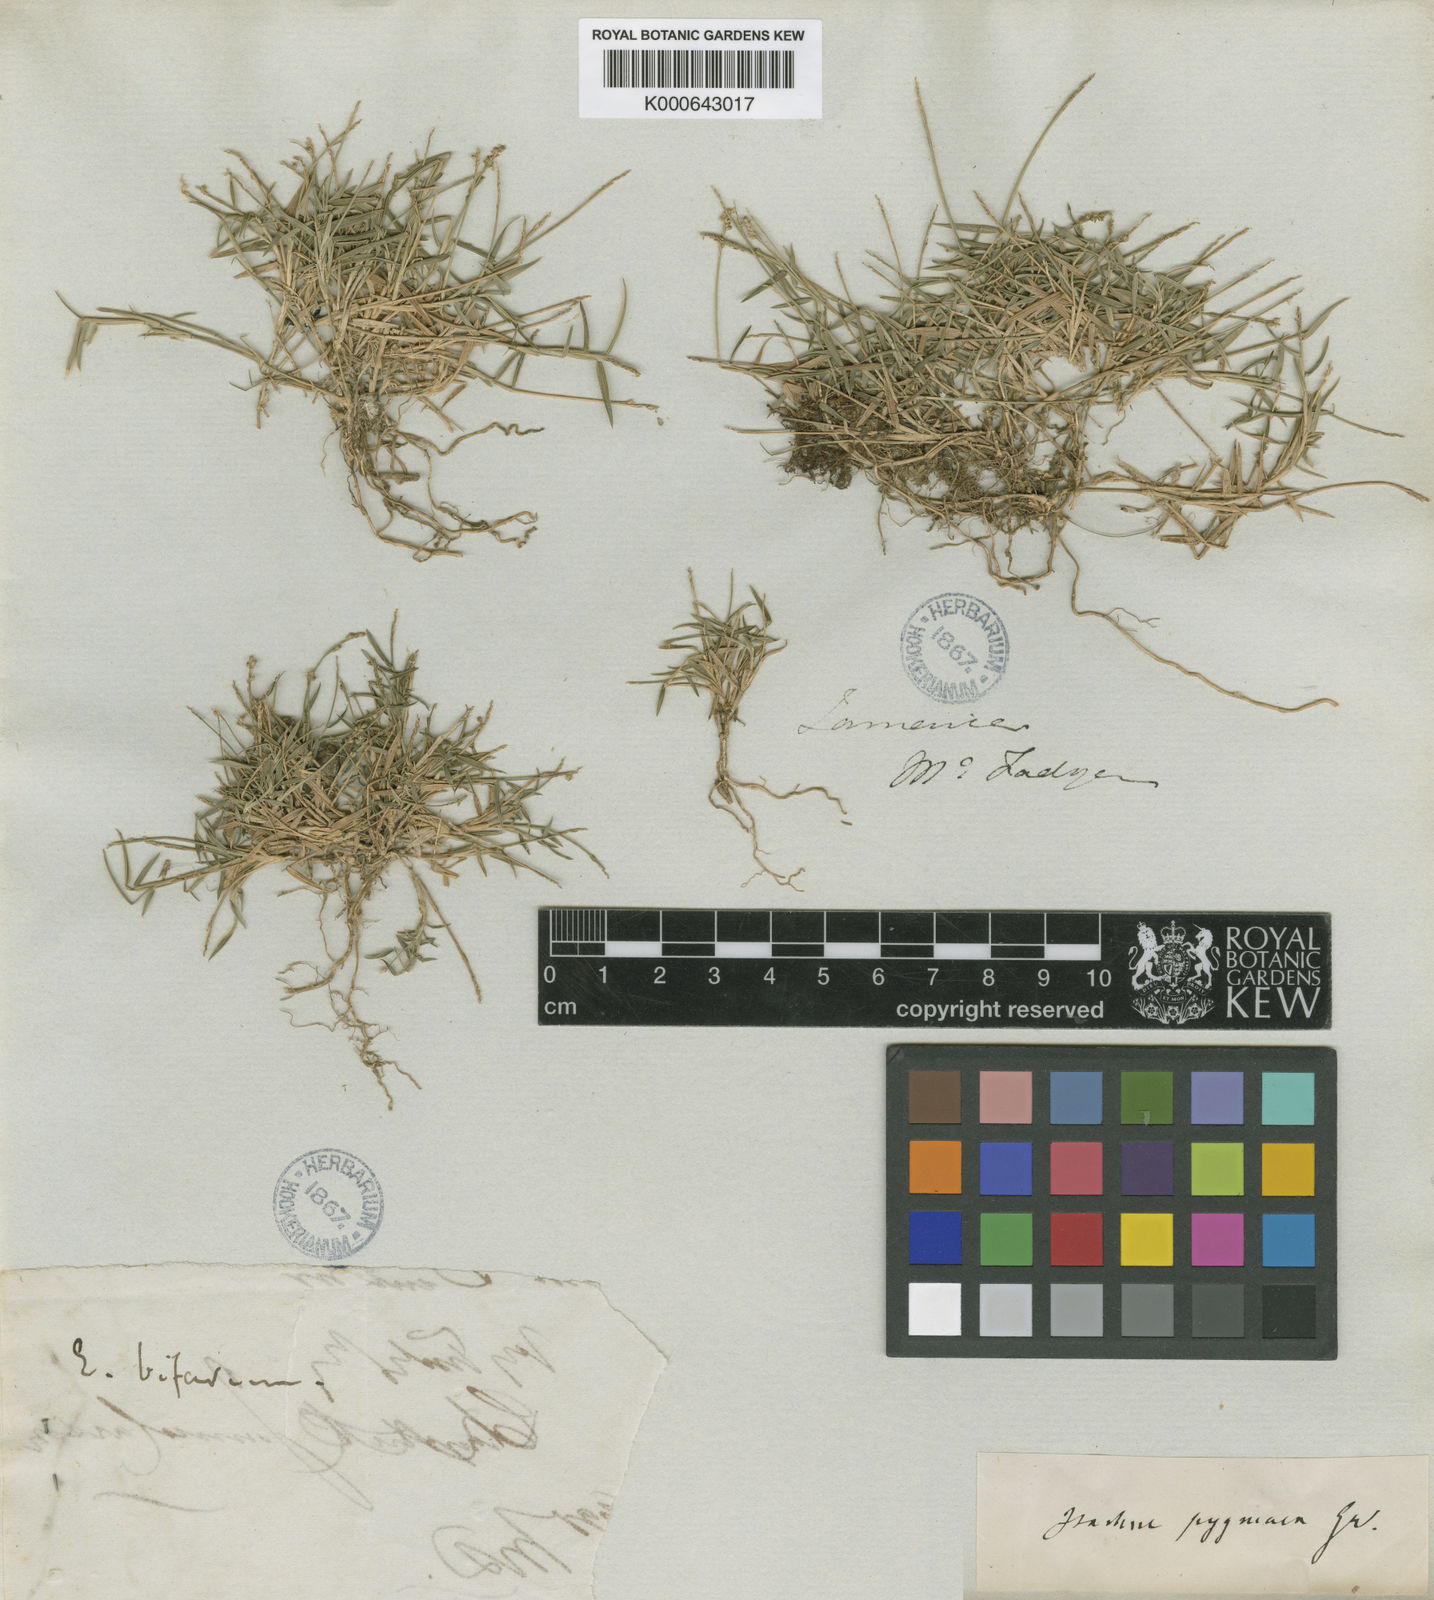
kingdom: Plantae
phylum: Tracheophyta
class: Liliopsida
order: Poales
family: Poaceae
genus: Isachne
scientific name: Isachne pygmaea
